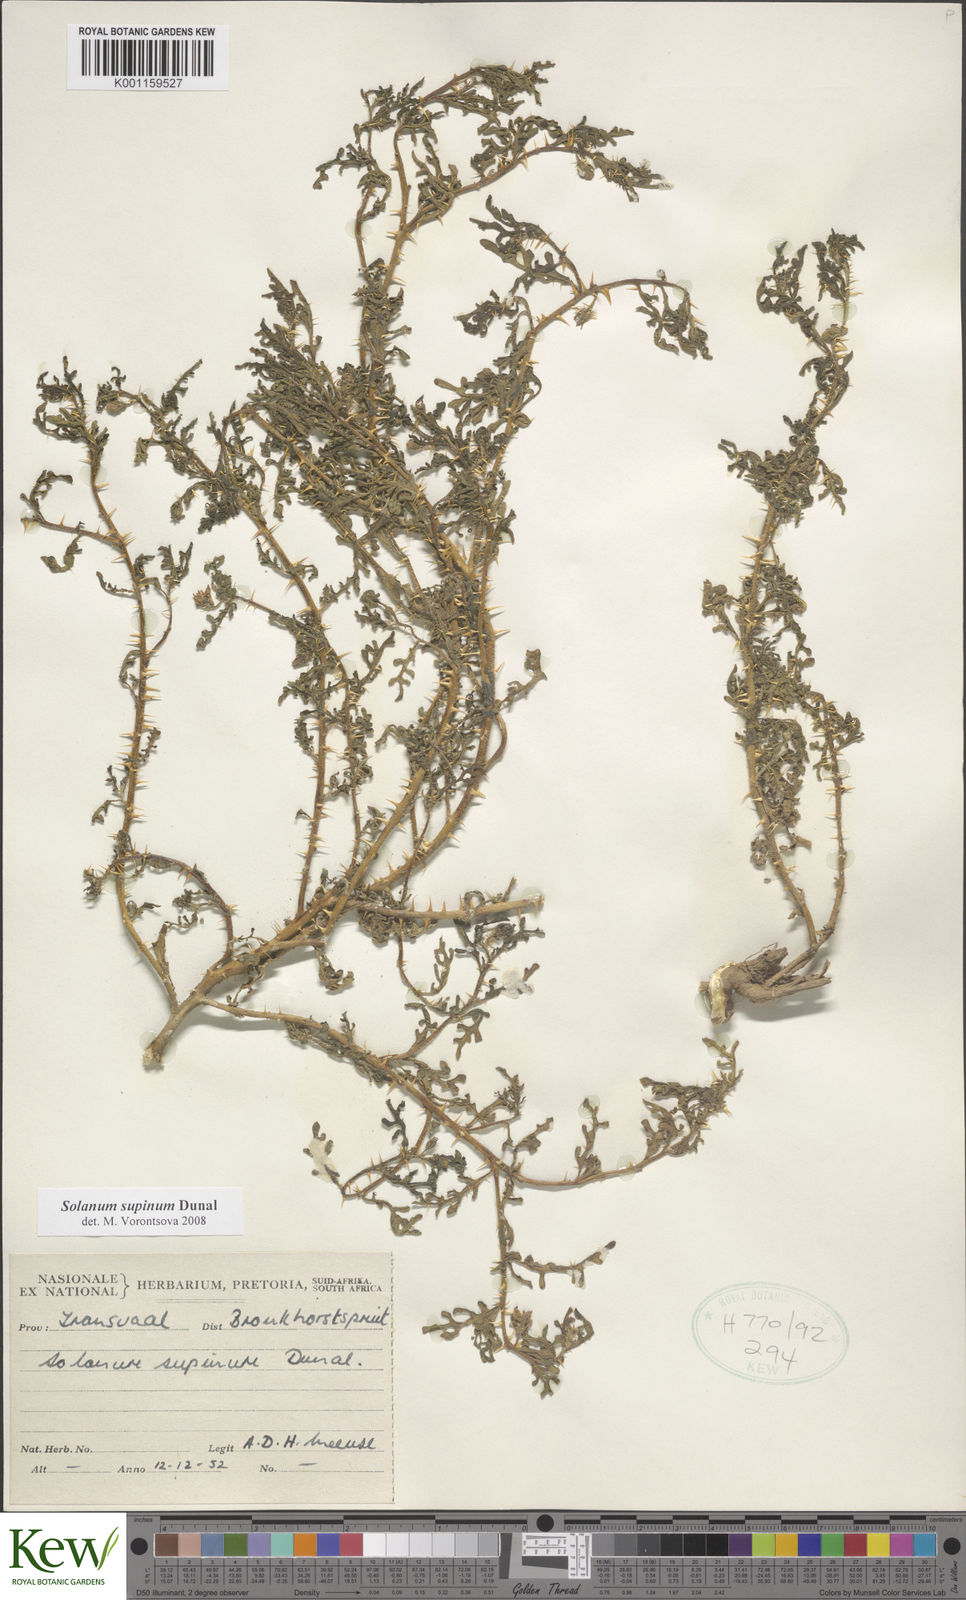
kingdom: Plantae
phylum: Tracheophyta
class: Magnoliopsida
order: Solanales
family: Solanaceae
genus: Solanum
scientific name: Solanum supinum
